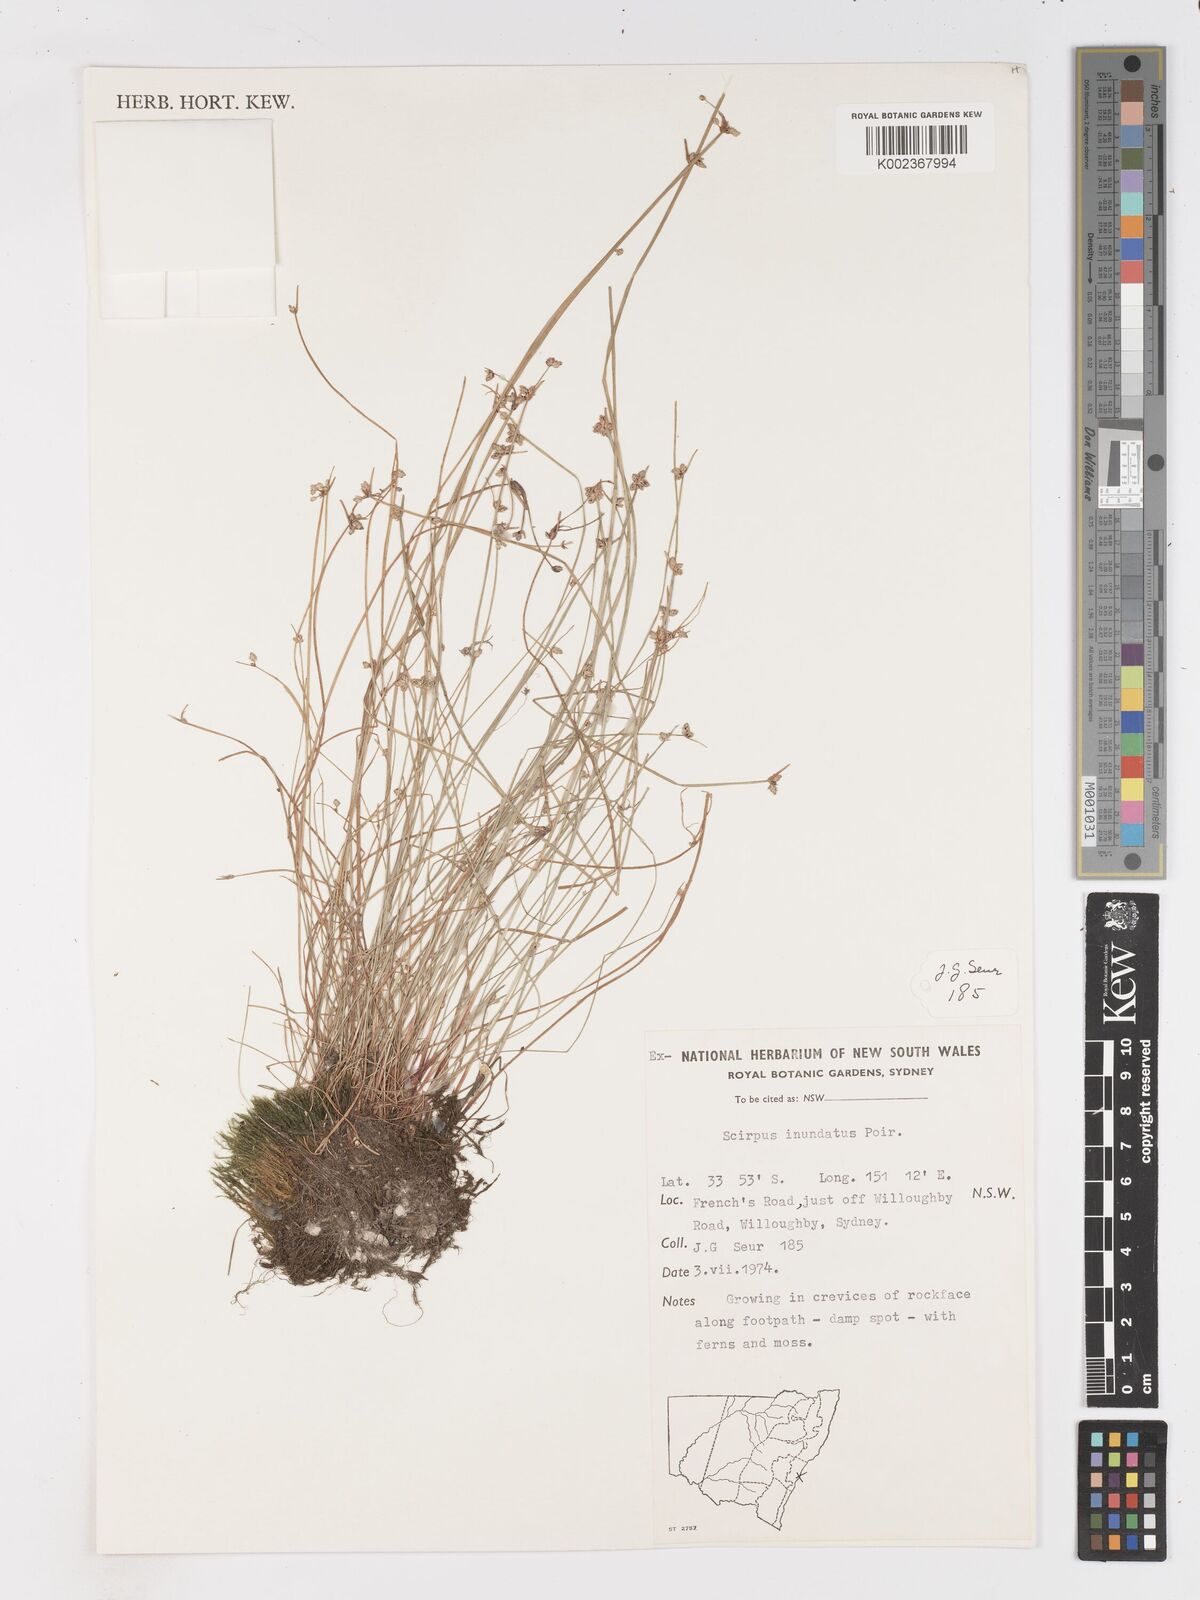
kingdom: Plantae
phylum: Tracheophyta
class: Liliopsida
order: Poales
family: Cyperaceae
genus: Isolepis
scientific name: Isolepis inundata
